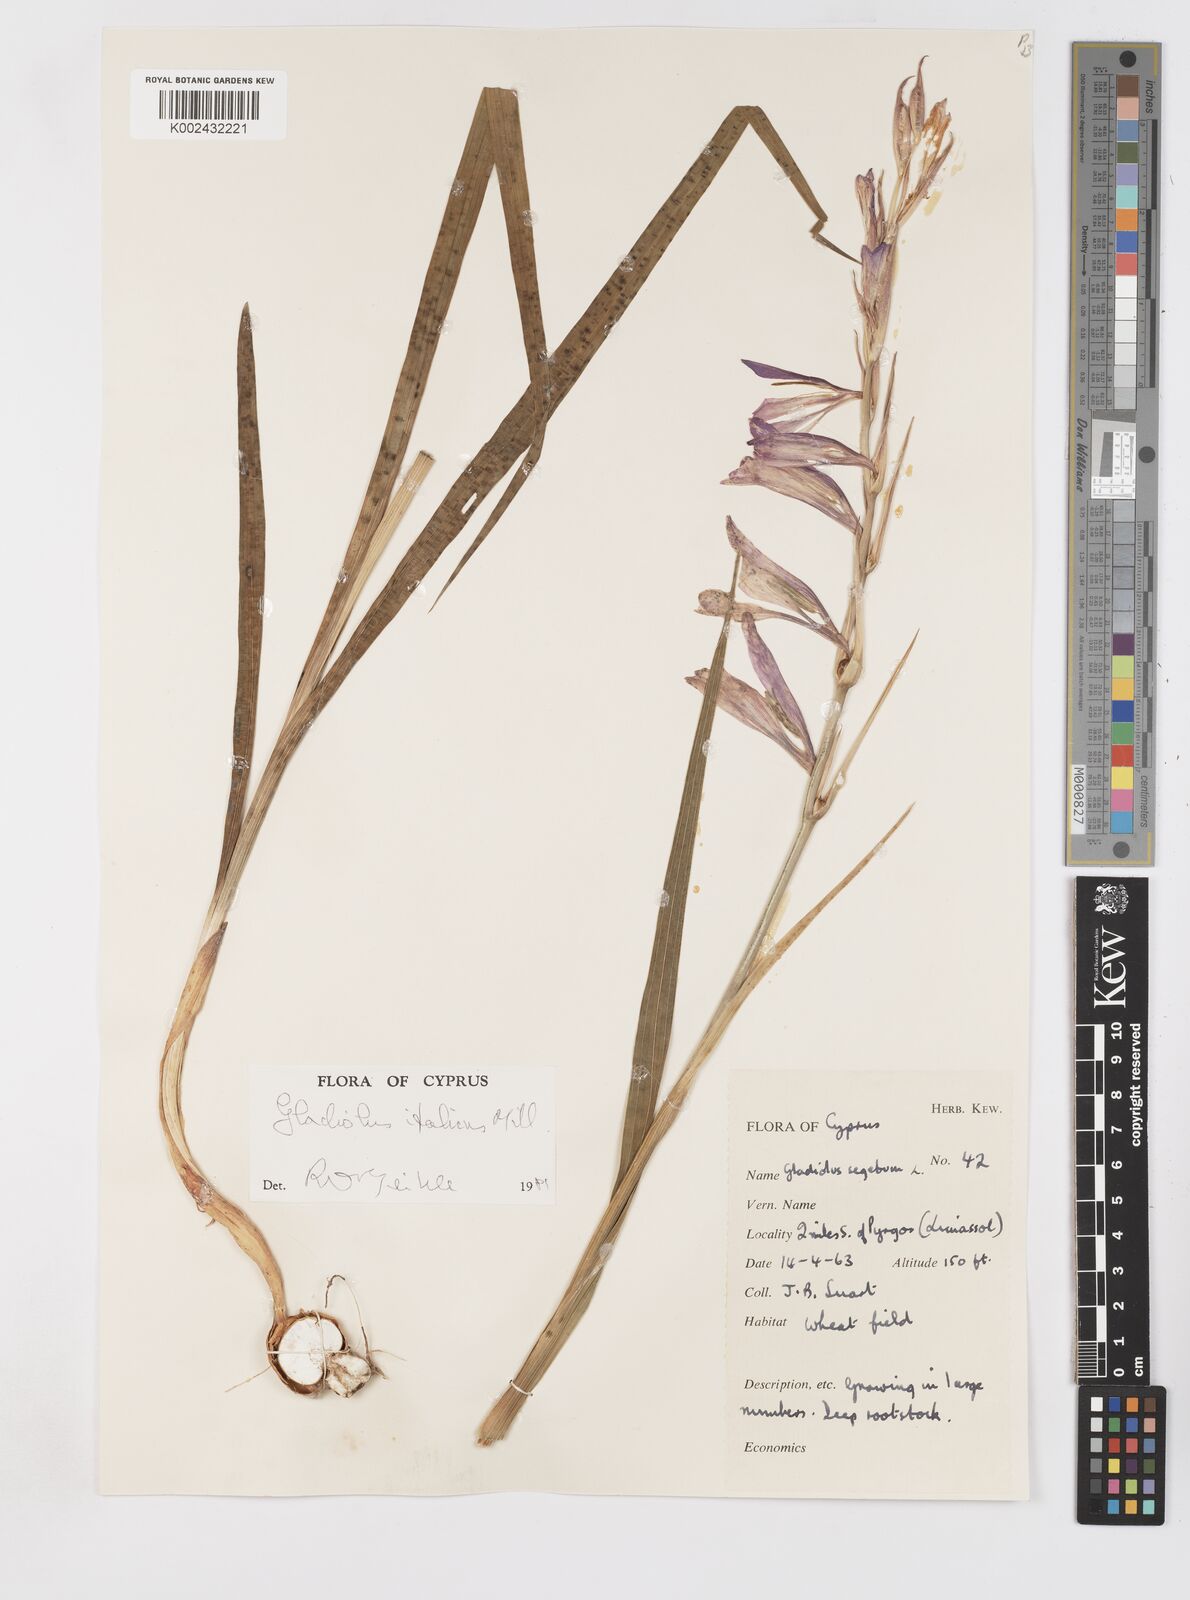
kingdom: Plantae
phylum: Tracheophyta
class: Liliopsida
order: Asparagales
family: Iridaceae
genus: Gladiolus
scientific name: Gladiolus italicus
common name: Field gladiolus
